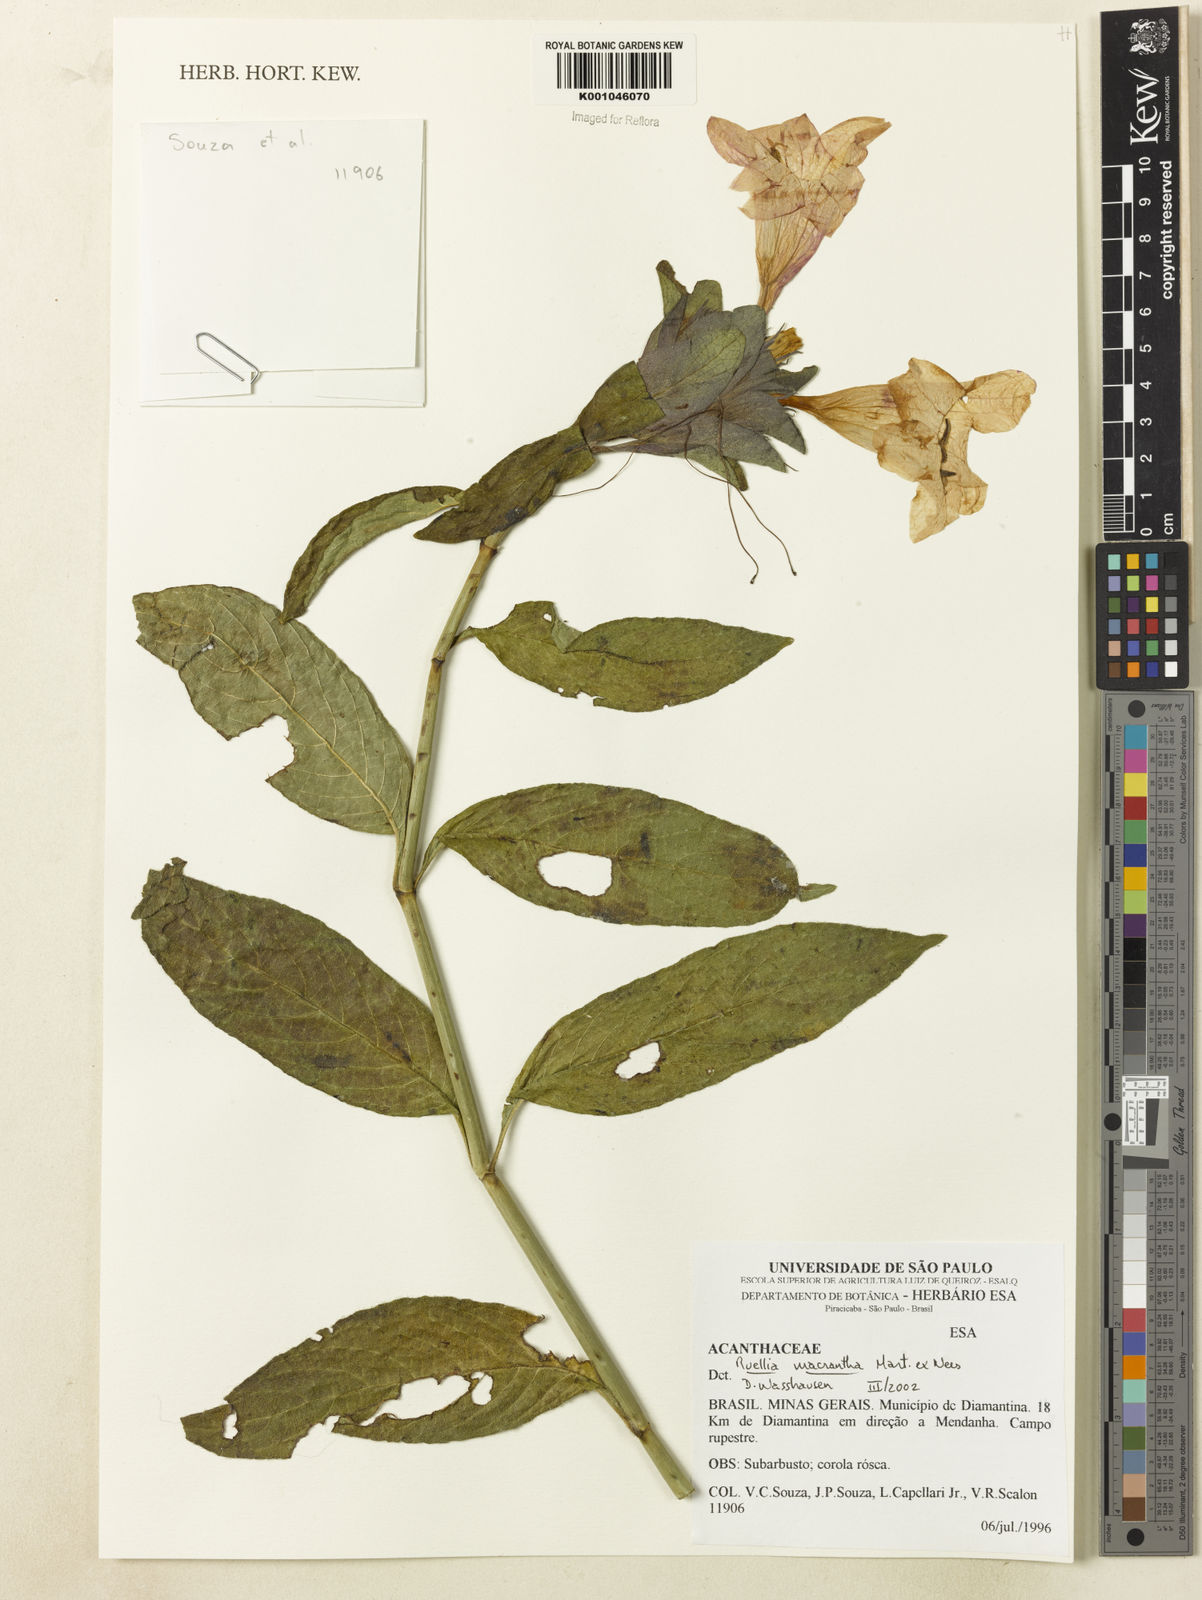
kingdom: Plantae
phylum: Tracheophyta
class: Magnoliopsida
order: Lamiales
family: Acanthaceae
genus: Ruellia
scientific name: Ruellia
